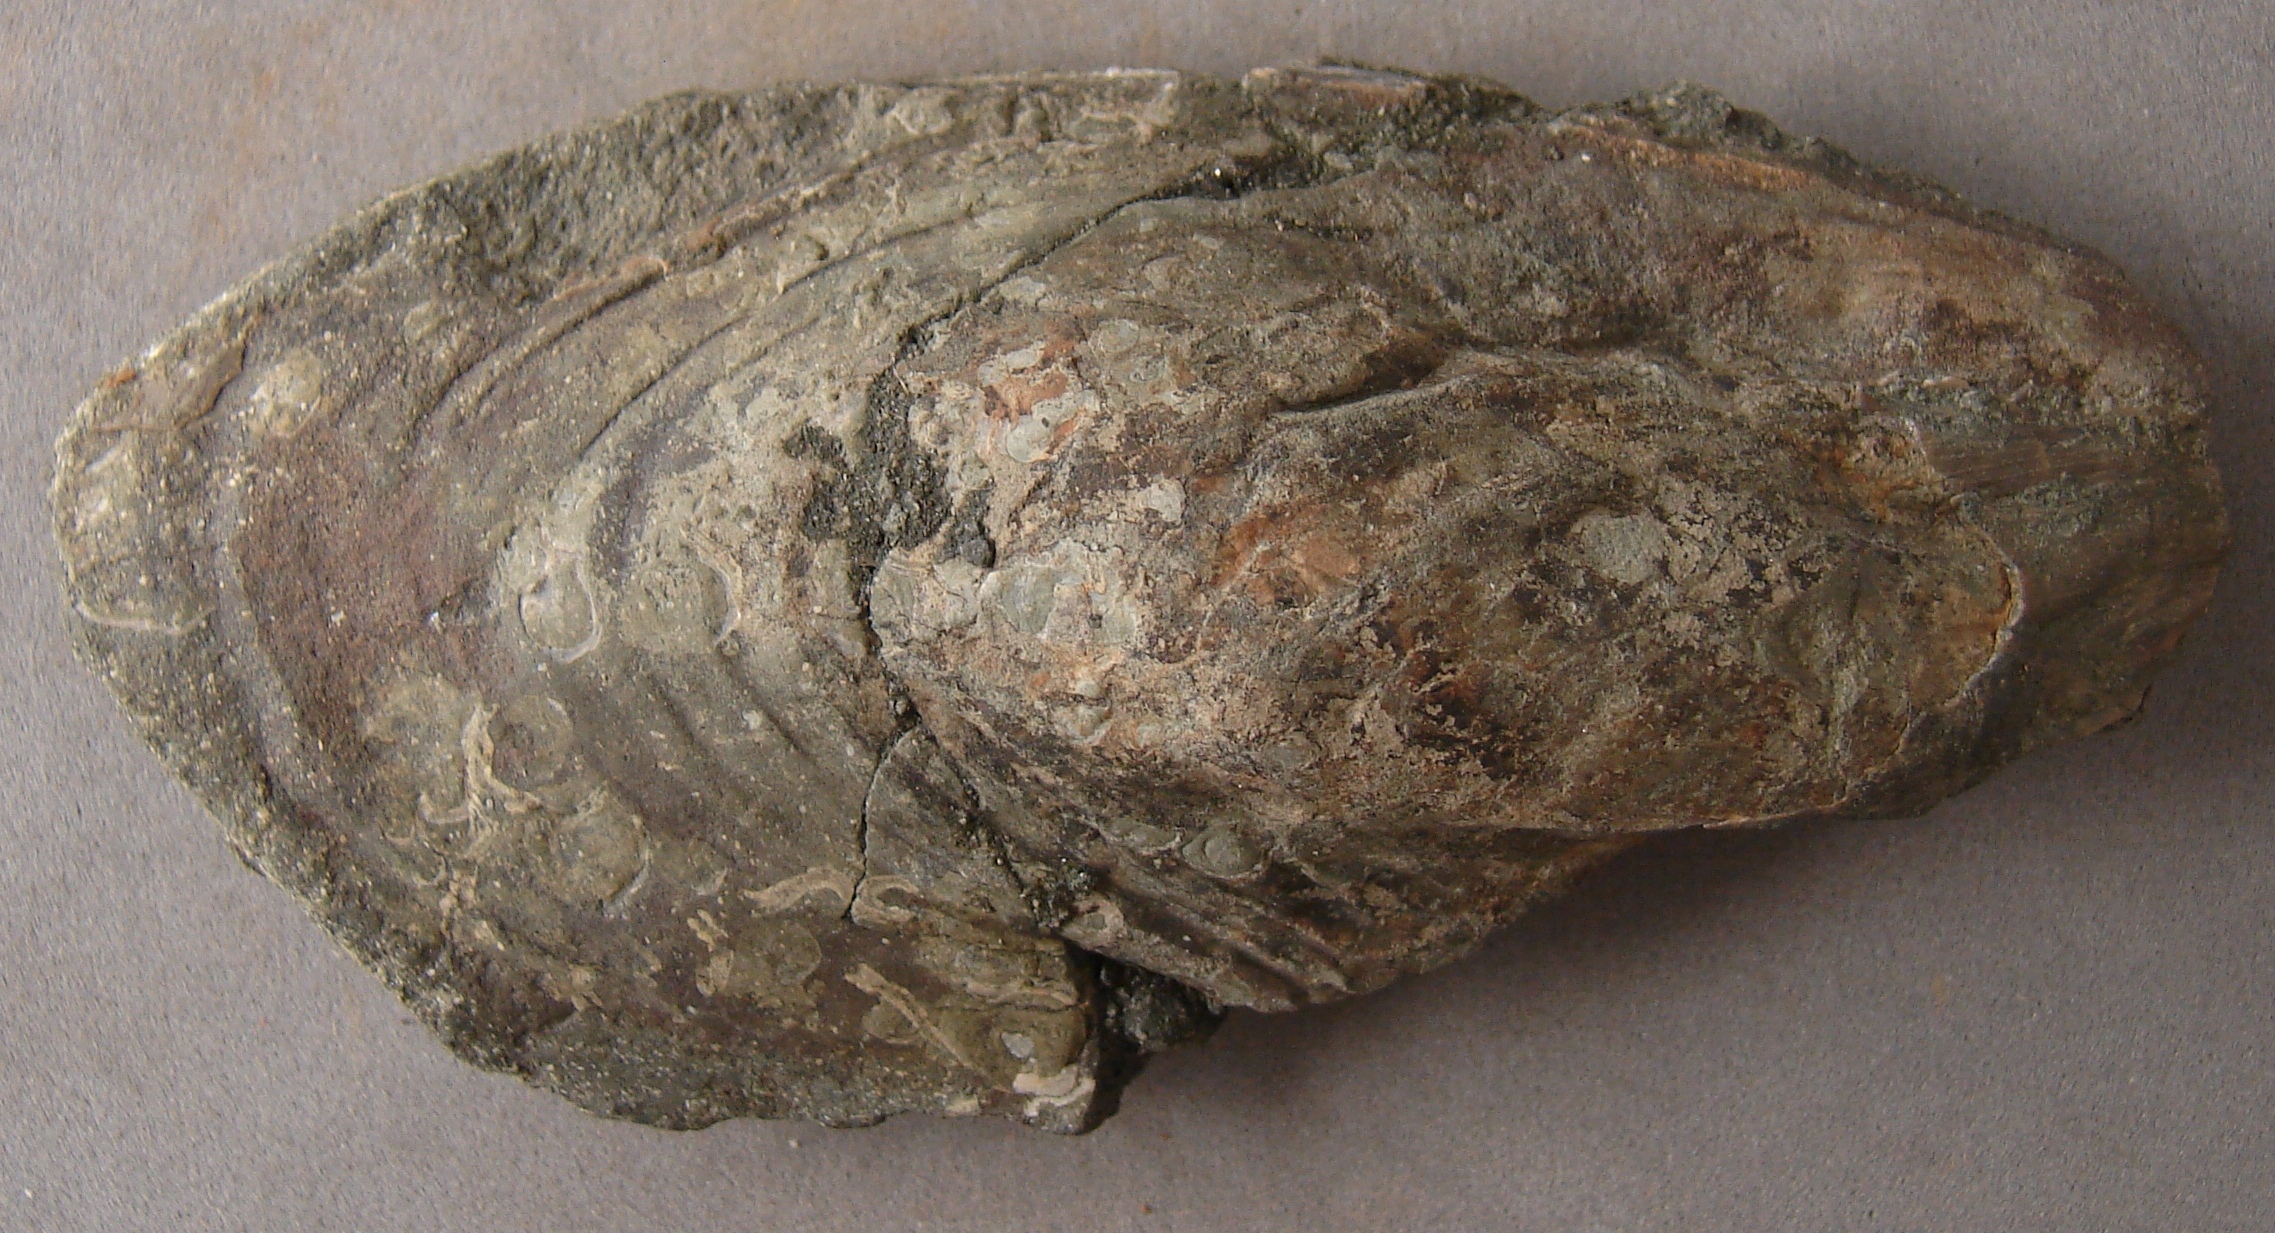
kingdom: Animalia
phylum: Mollusca
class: Bivalvia
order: Ostreida
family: Bakevelliidae
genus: Gervillia
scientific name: Gervillia
